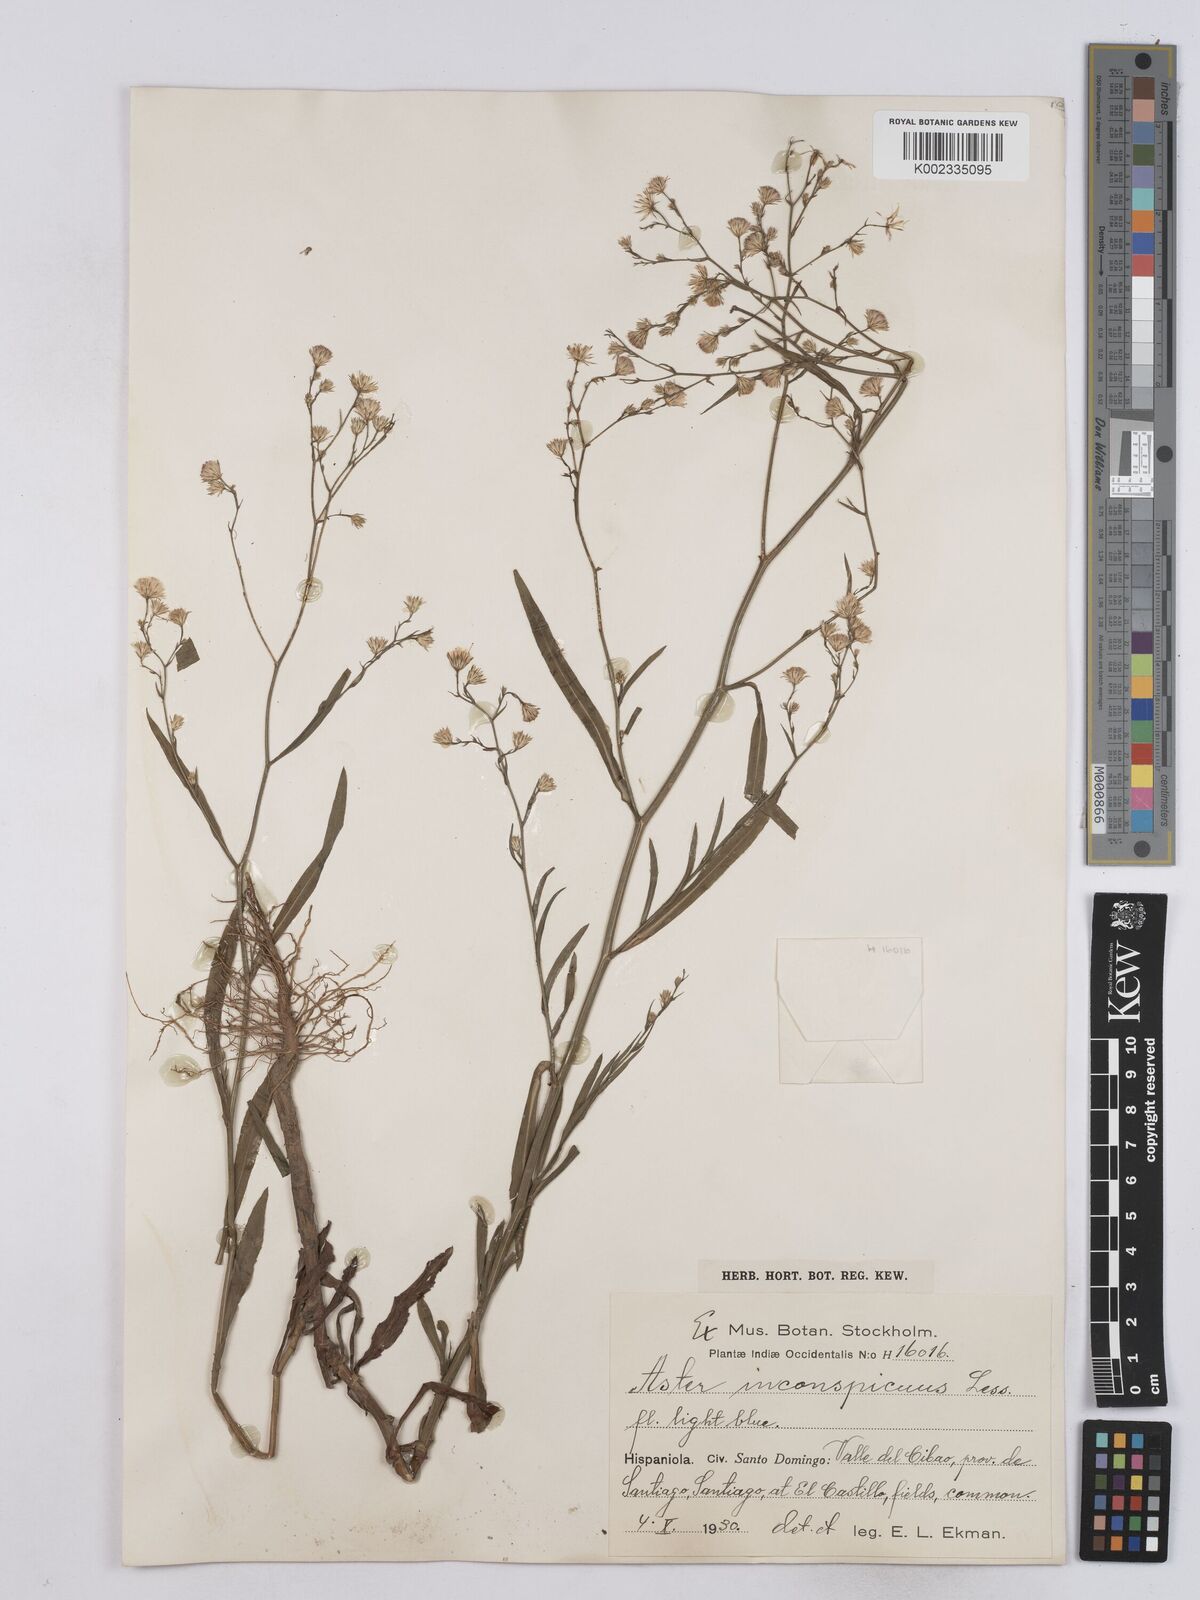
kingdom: Plantae
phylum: Tracheophyta
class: Magnoliopsida
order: Asterales
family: Asteraceae
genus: Symphyotrichum
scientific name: Symphyotrichum expansum
